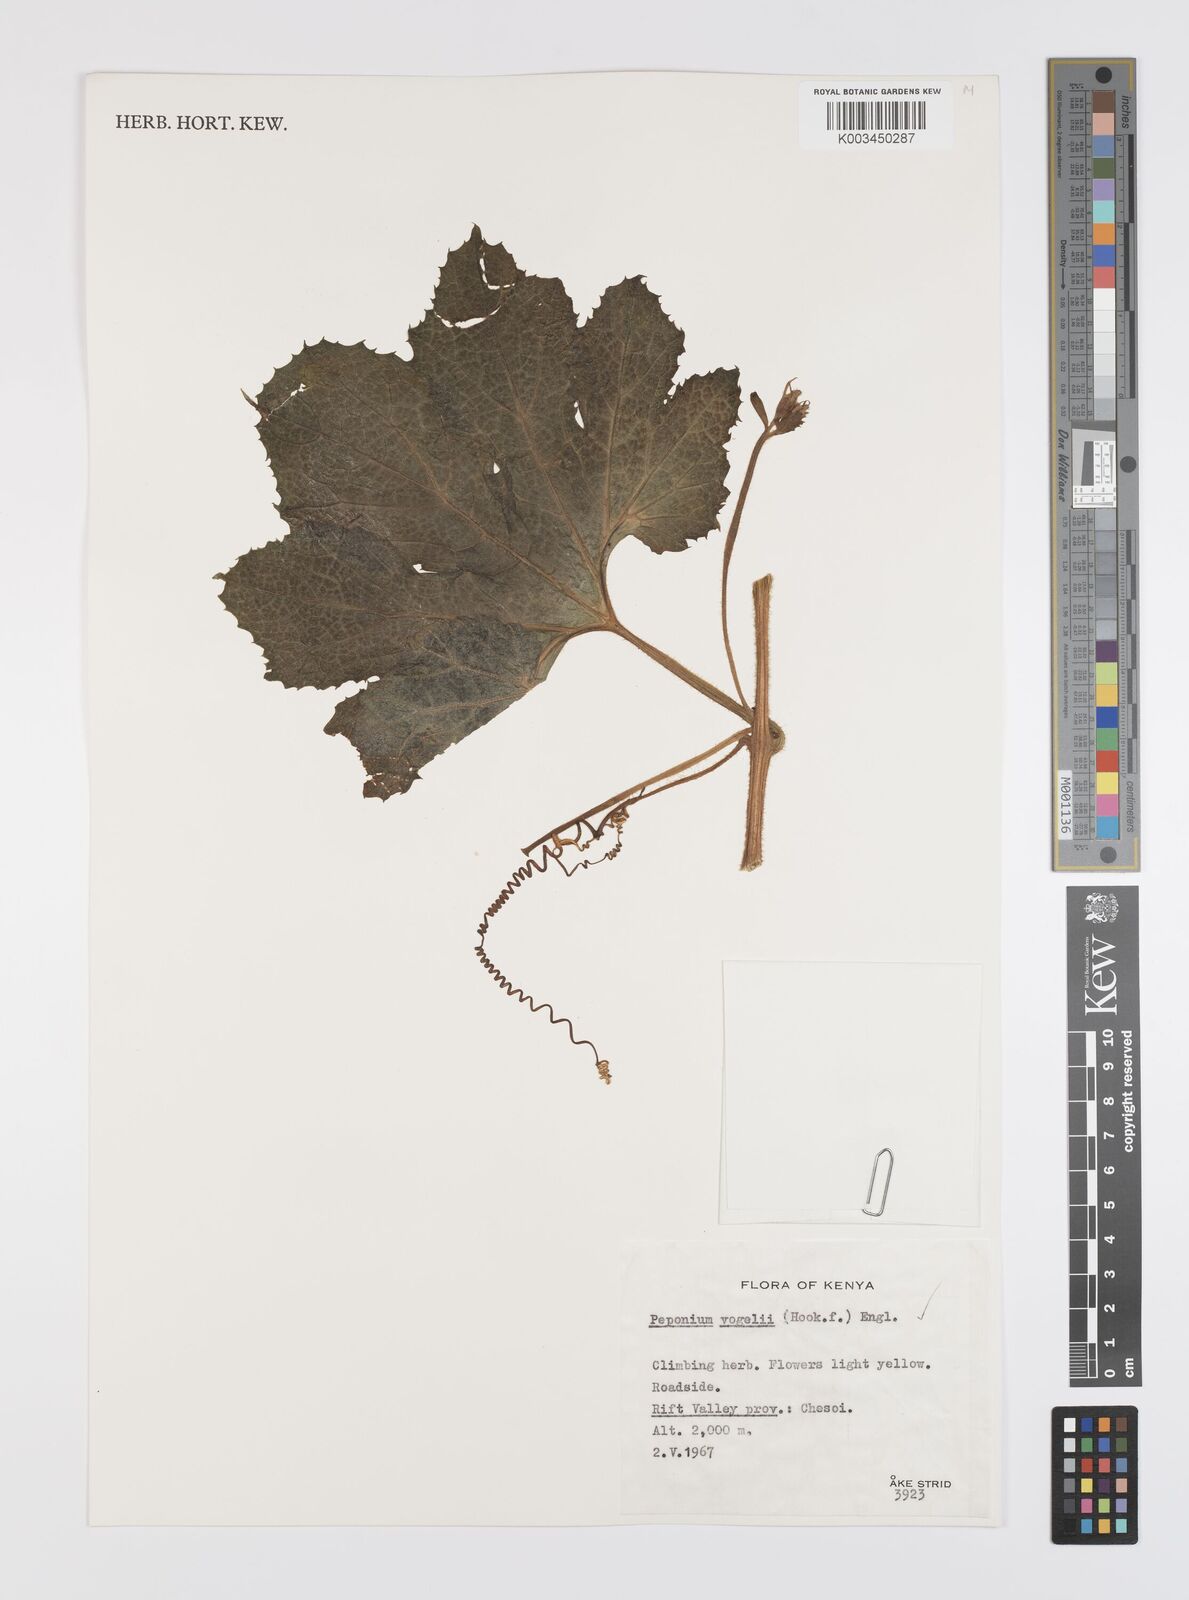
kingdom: Plantae
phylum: Tracheophyta
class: Magnoliopsida
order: Cucurbitales
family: Cucurbitaceae
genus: Peponium
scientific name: Peponium vogelii
